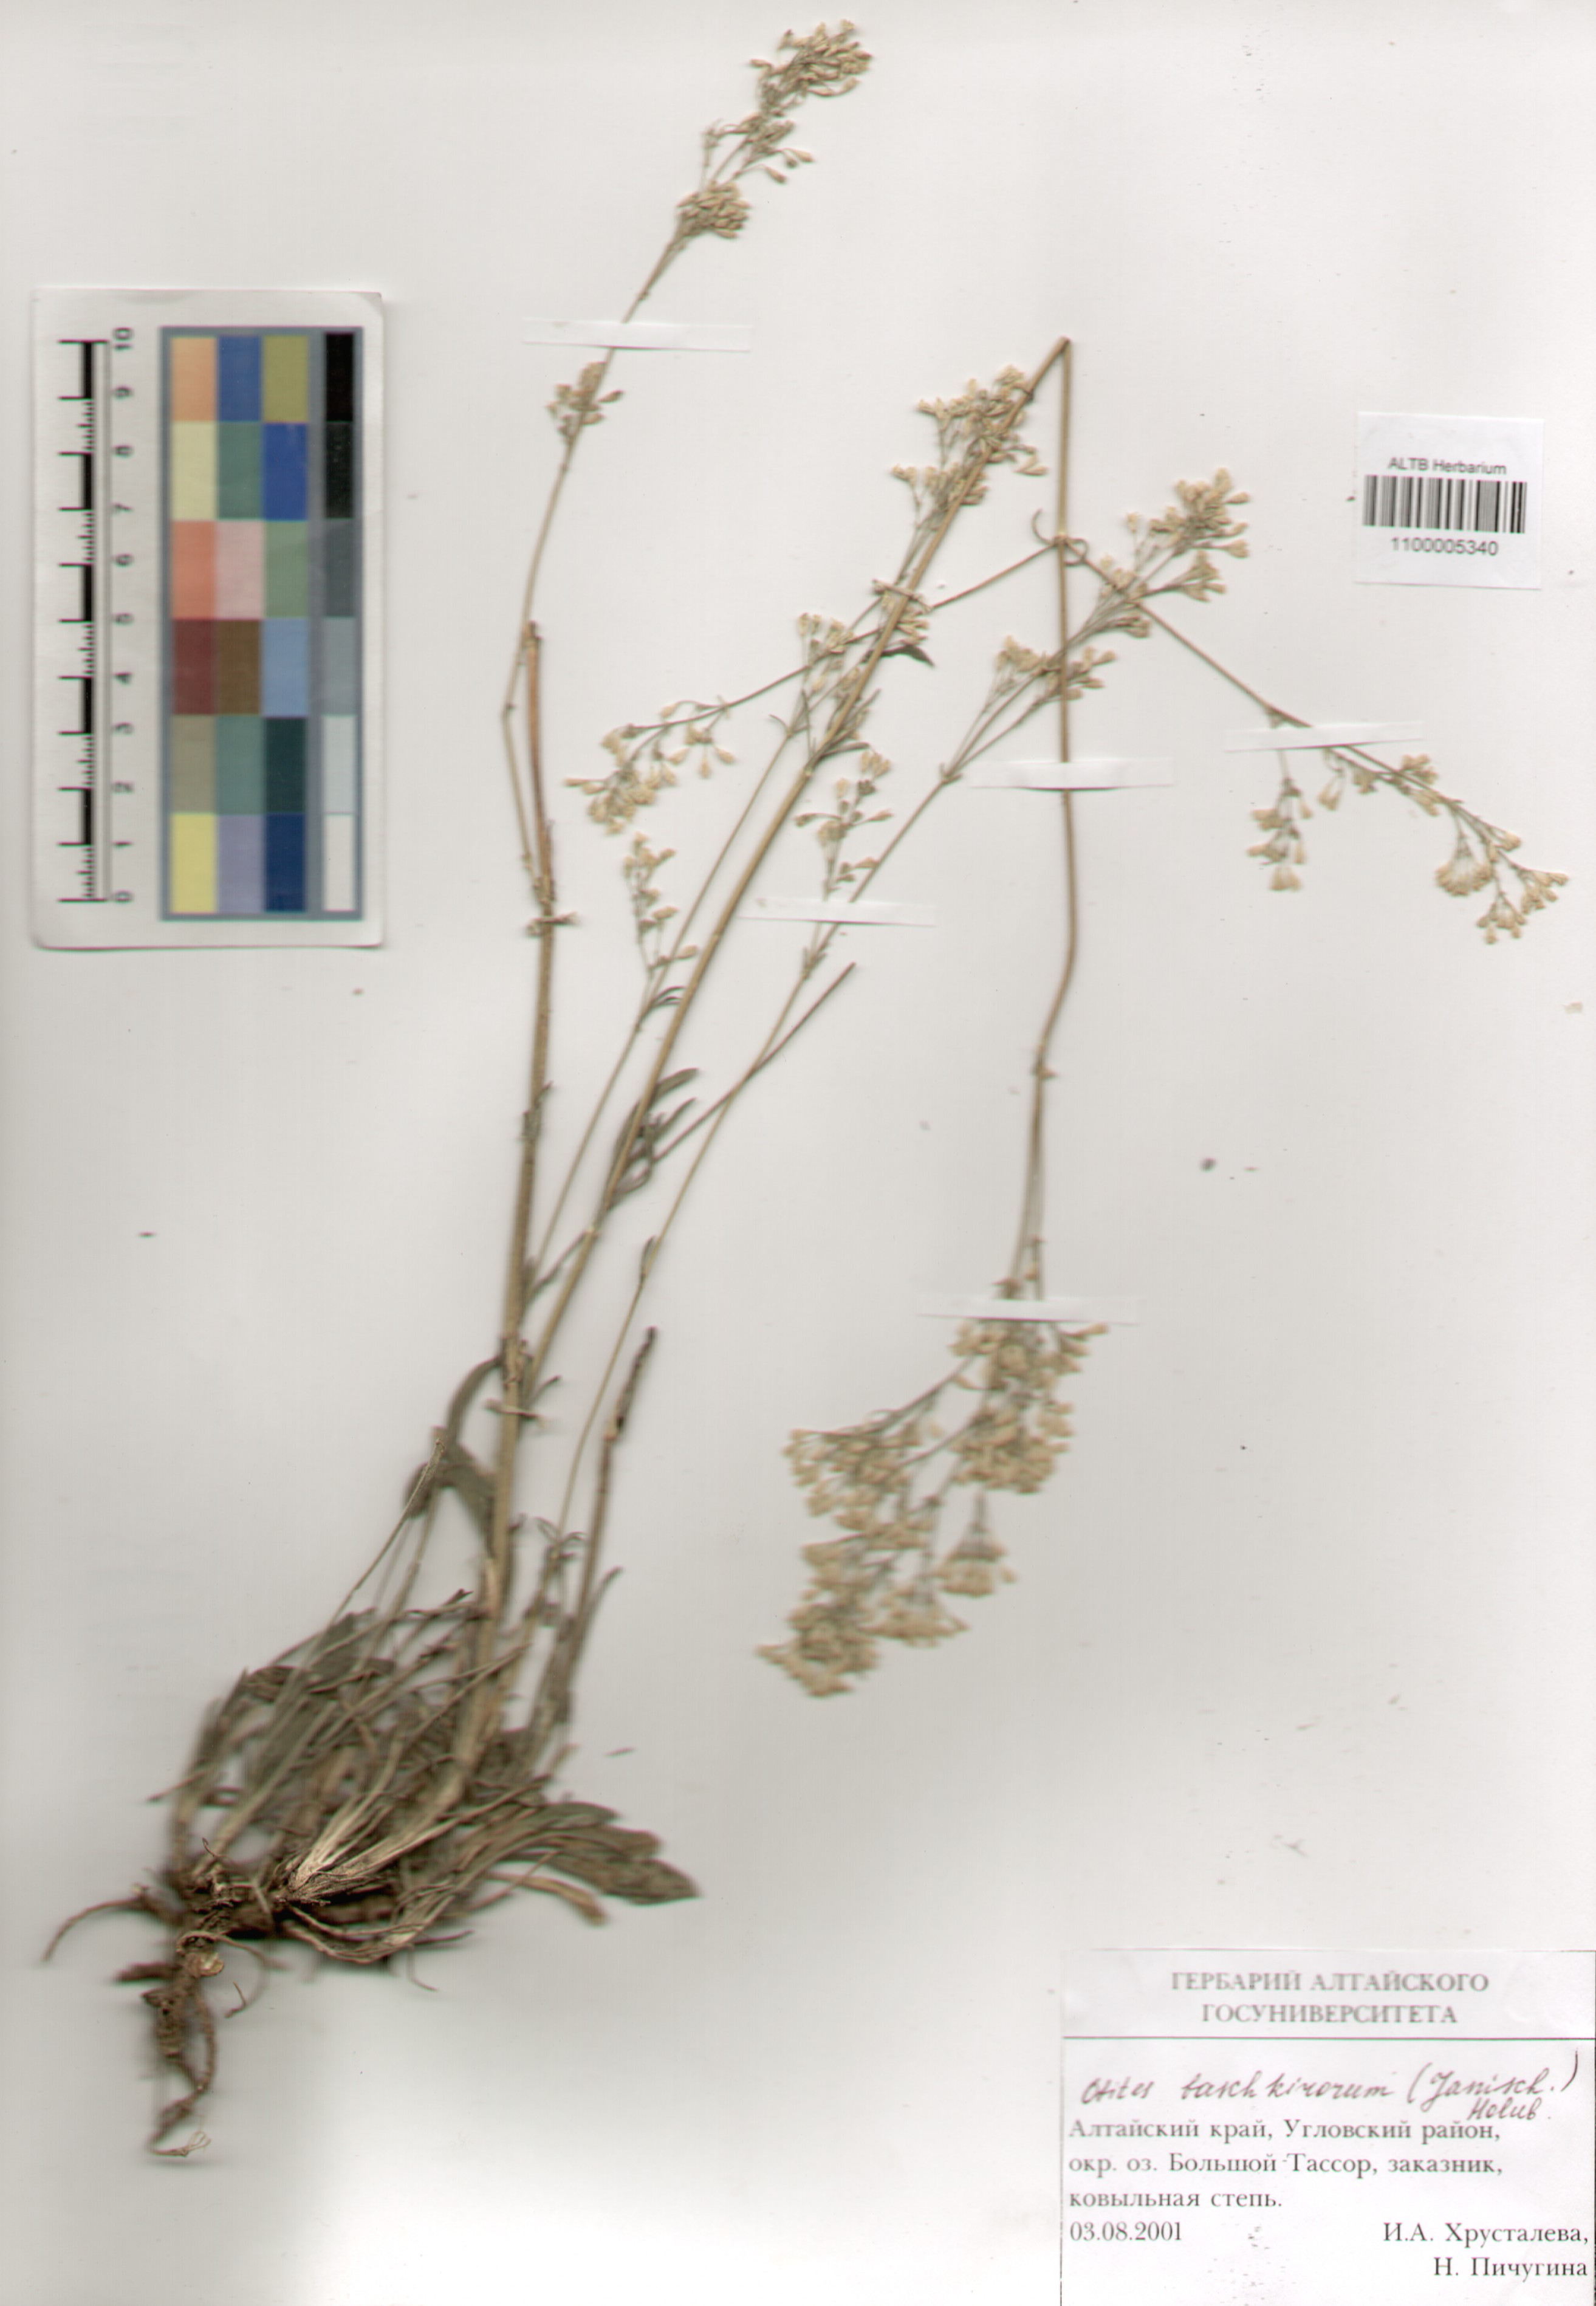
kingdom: Plantae
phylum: Tracheophyta
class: Magnoliopsida
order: Caryophyllales
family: Caryophyllaceae
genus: Silene
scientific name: Silene baschkirorum
